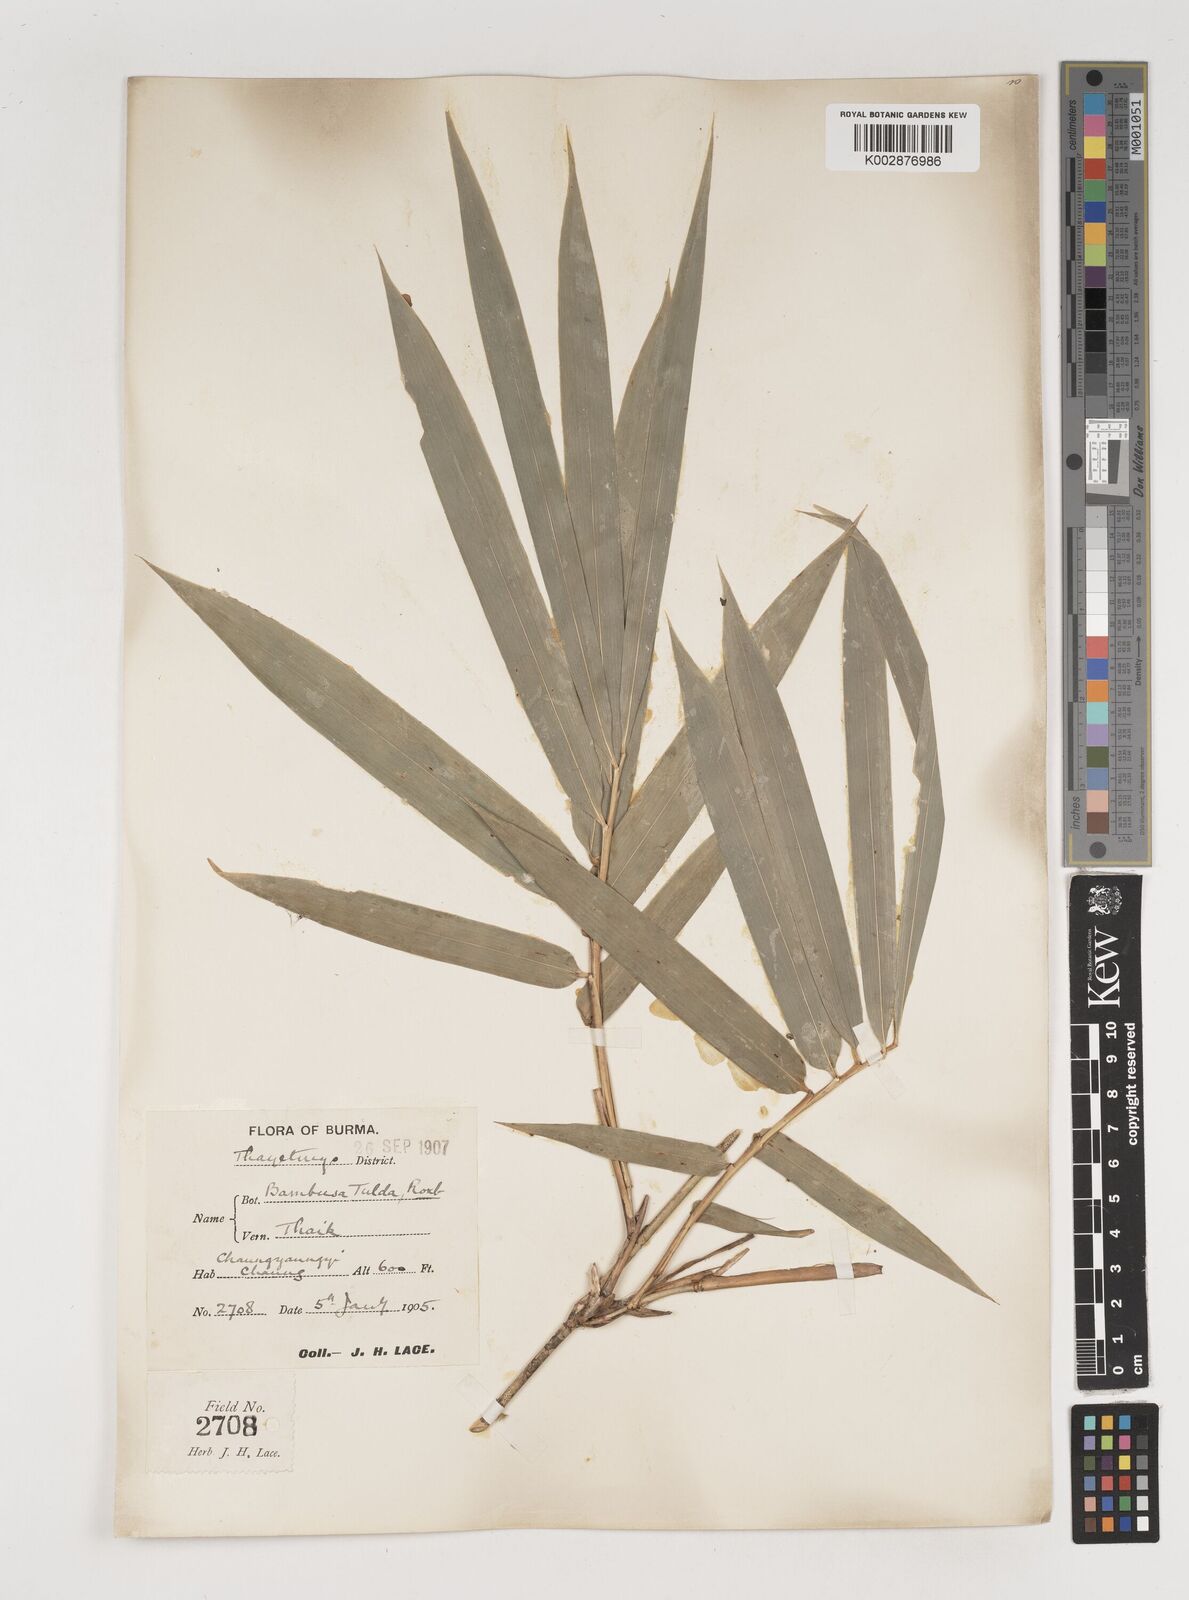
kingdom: Plantae
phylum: Tracheophyta
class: Liliopsida
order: Poales
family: Poaceae
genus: Bambusa
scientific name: Bambusa tulda
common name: Bengal bamboo
